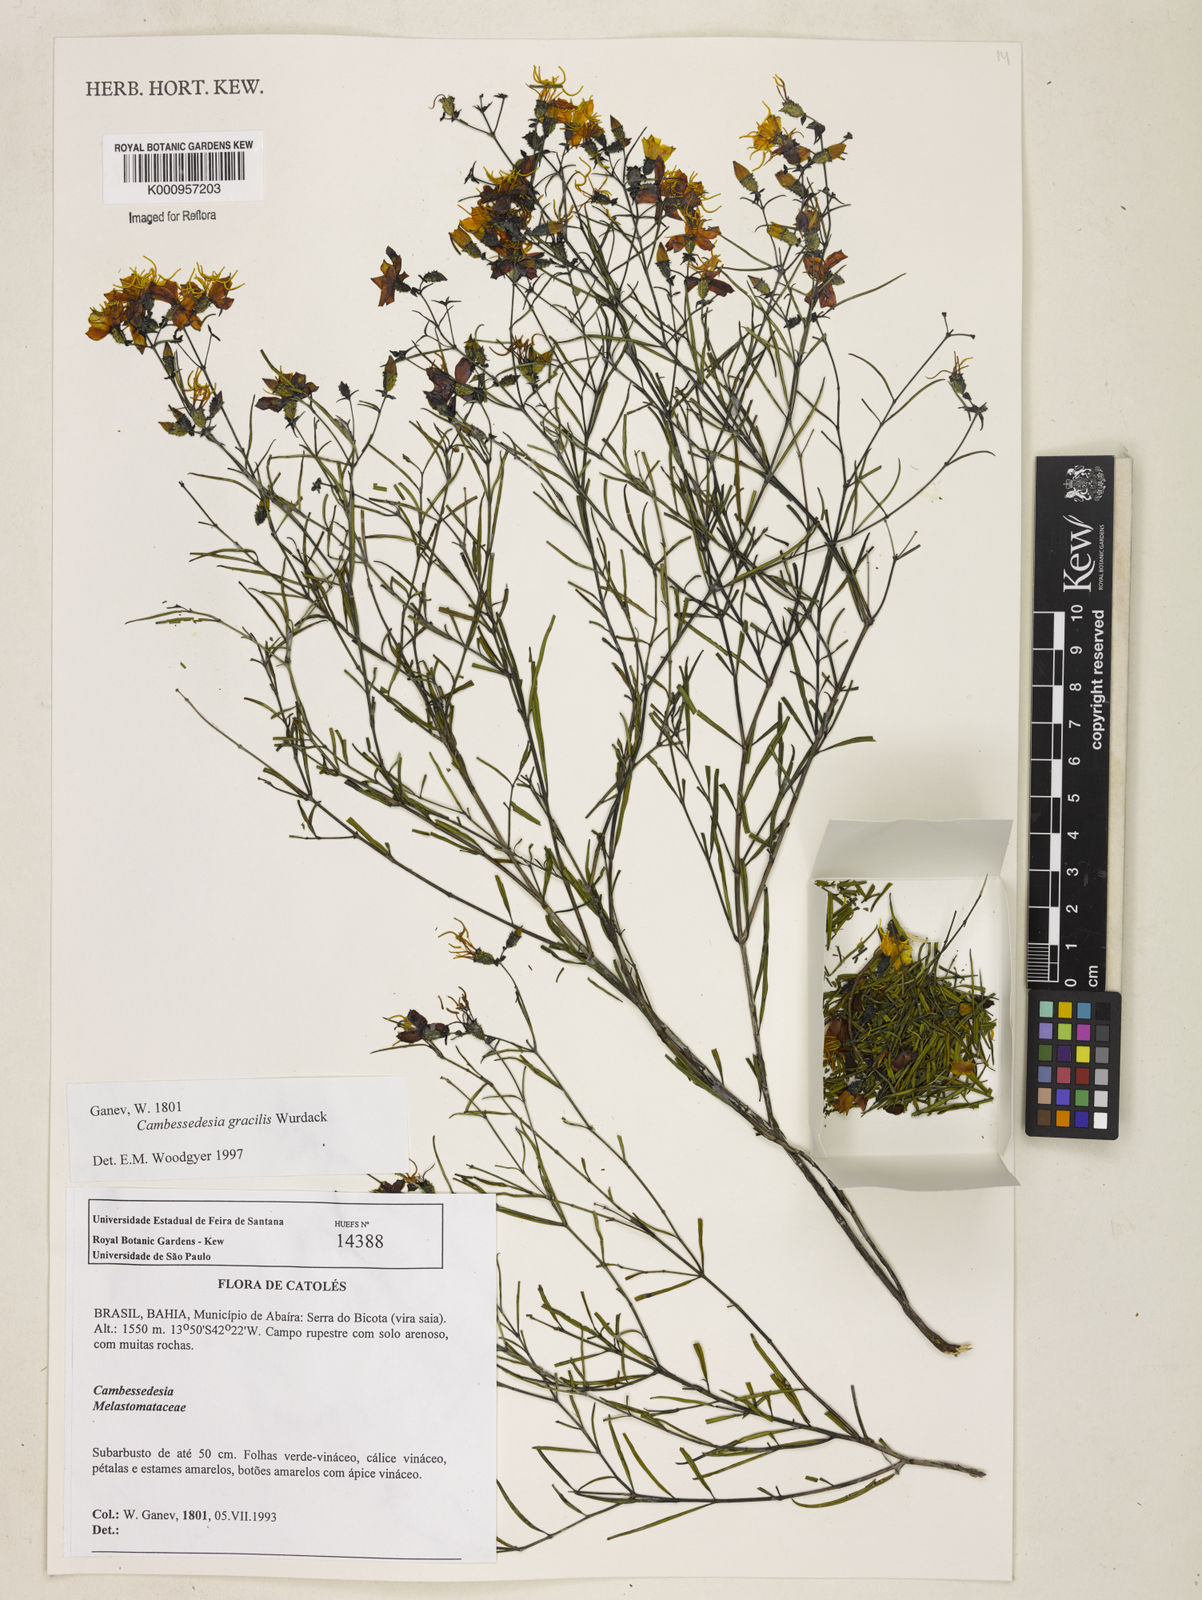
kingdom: Plantae
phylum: Tracheophyta
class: Magnoliopsida
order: Myrtales
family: Melastomataceae
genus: Cambessedesia
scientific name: Cambessedesia gracilis
